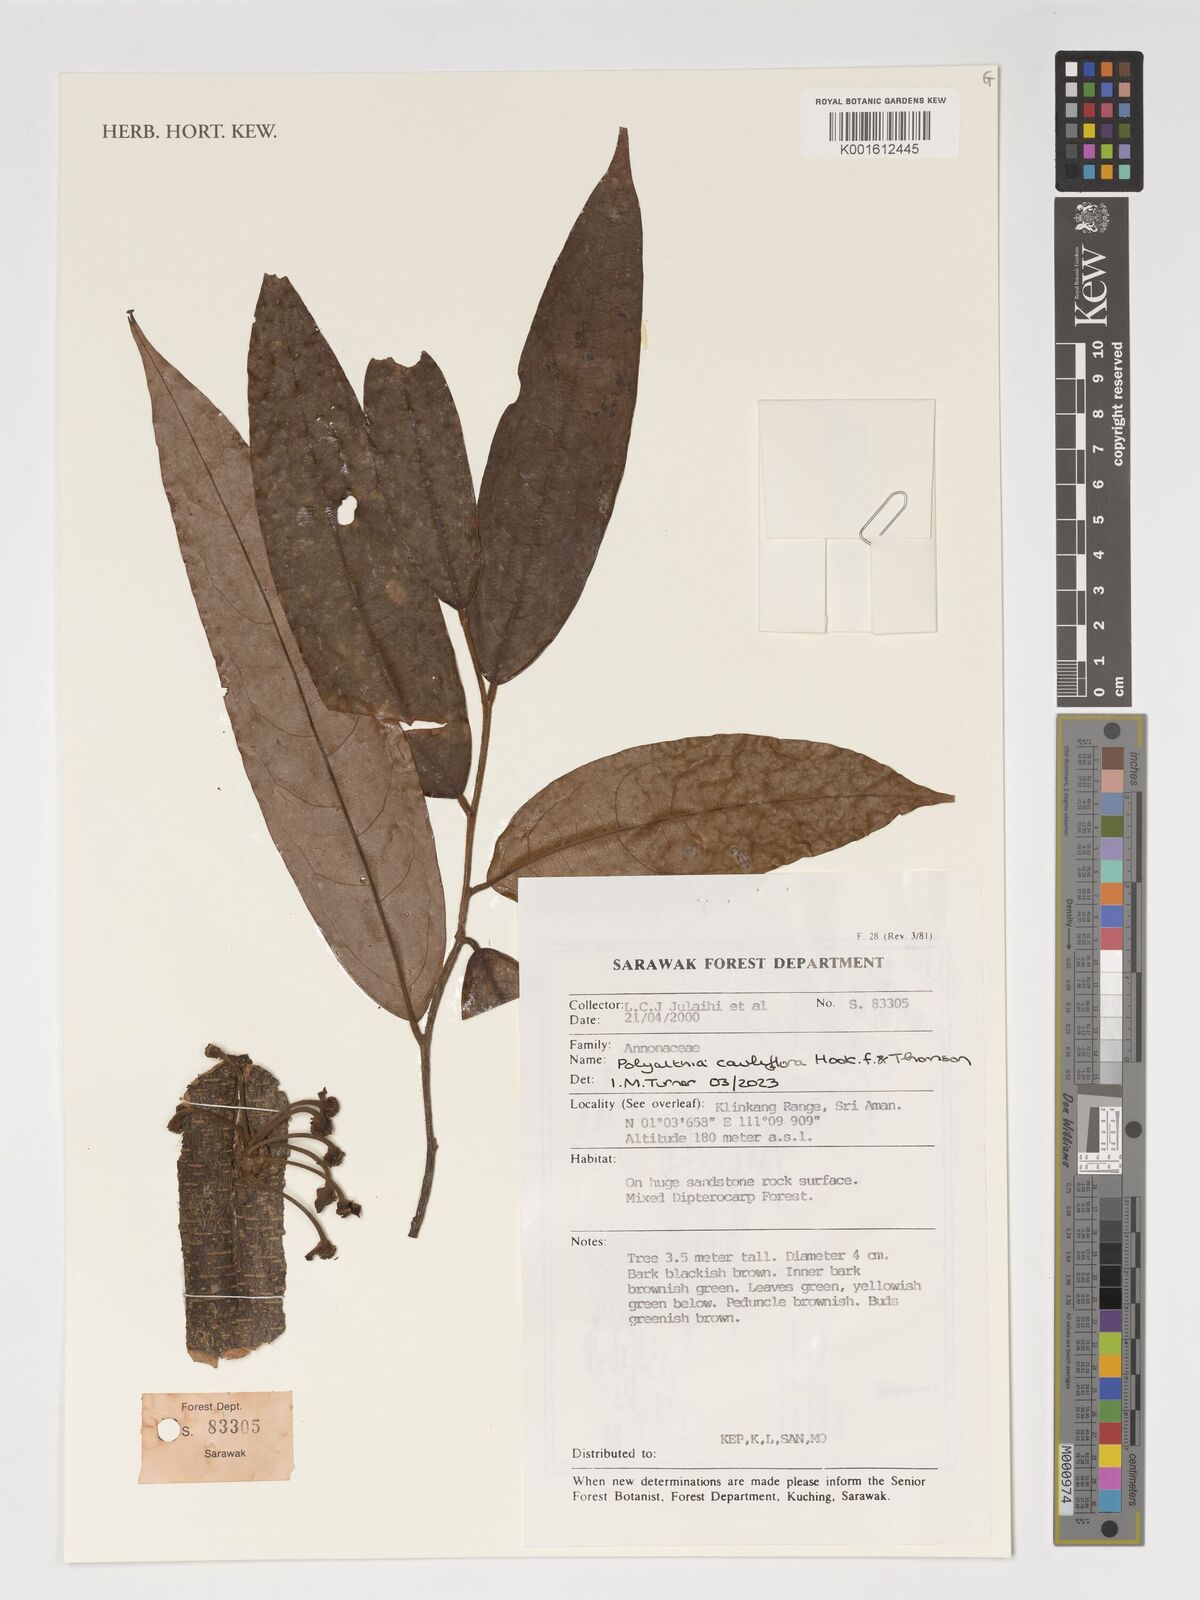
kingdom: Plantae
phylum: Tracheophyta
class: Magnoliopsida
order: Magnoliales
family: Annonaceae
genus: Polyalthia
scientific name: Polyalthia cauliflora
